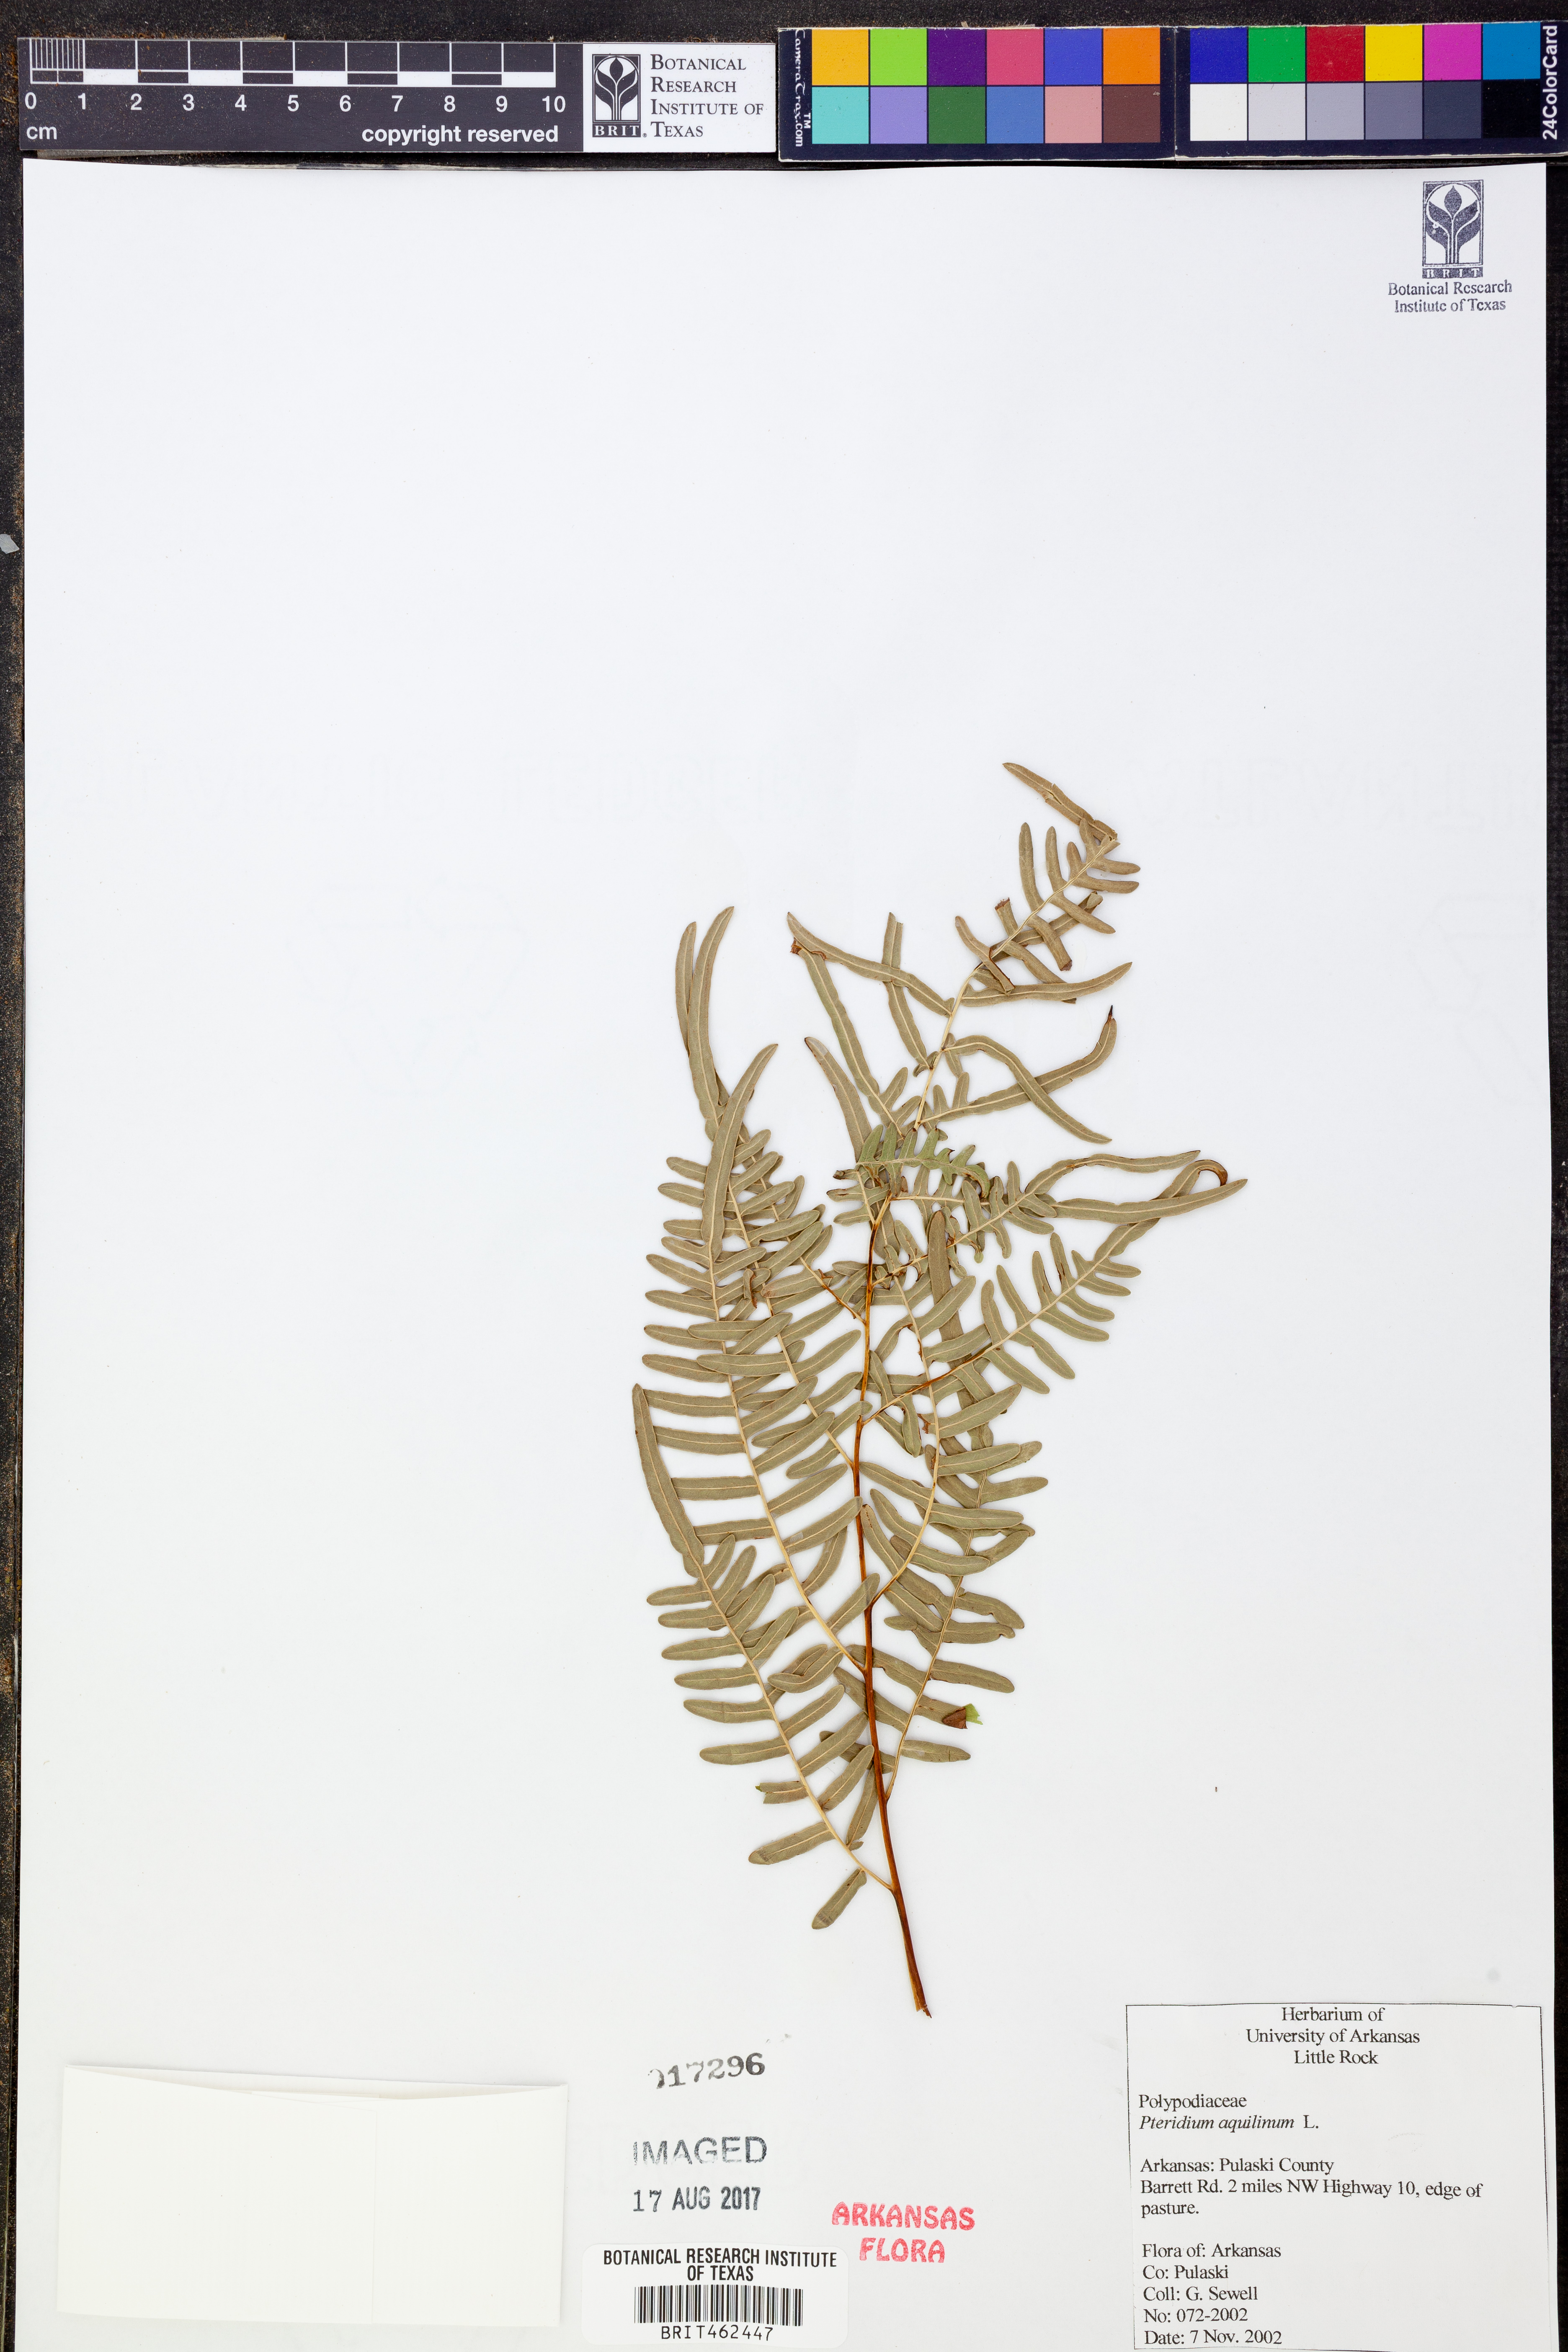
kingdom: Plantae
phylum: Tracheophyta
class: Polypodiopsida
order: Polypodiales
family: Dennstaedtiaceae
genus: Pteridium
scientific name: Pteridium aquilinum
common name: Bracken
